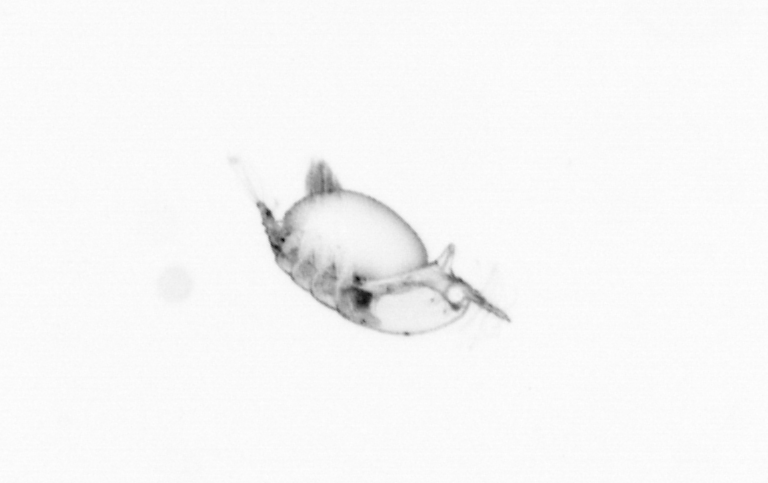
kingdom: Animalia
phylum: Arthropoda
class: Copepoda
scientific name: Copepoda
